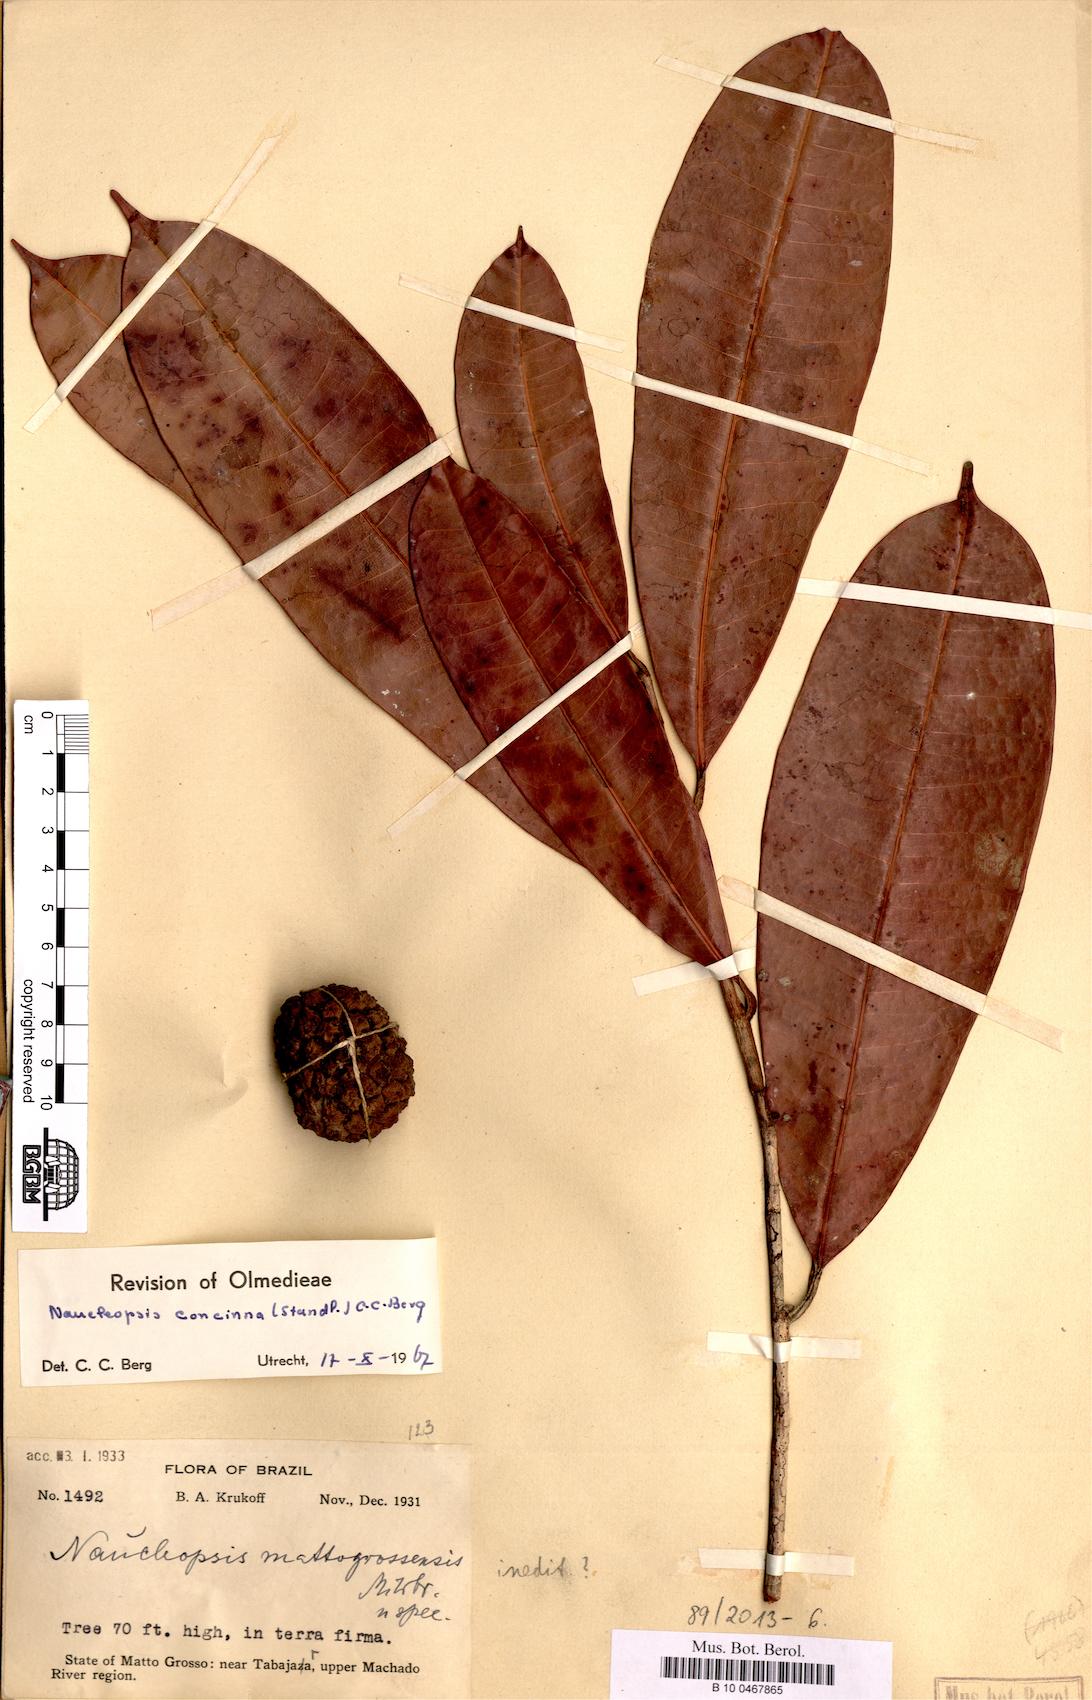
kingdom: Plantae
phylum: Tracheophyta
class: Magnoliopsida
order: Rosales
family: Moraceae
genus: Naucleopsis
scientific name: Naucleopsis concinna
